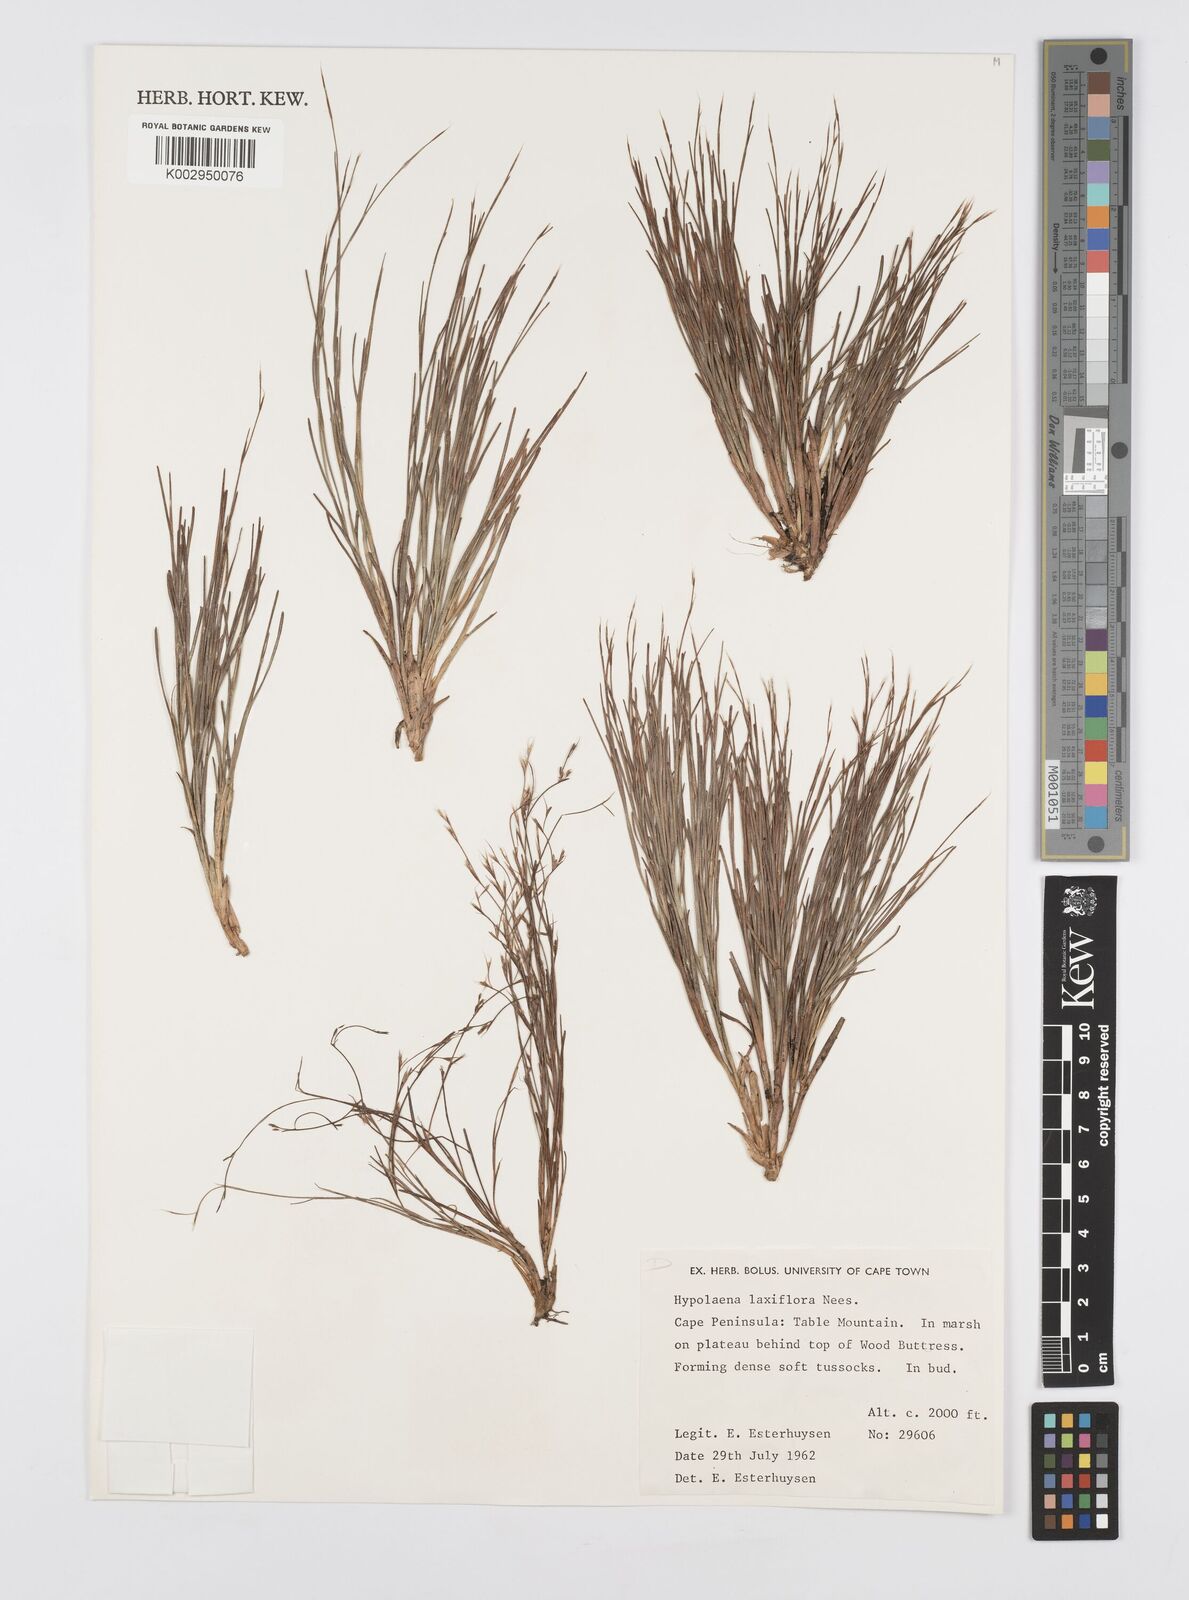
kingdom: Plantae
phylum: Tracheophyta
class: Liliopsida
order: Poales
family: Restionaceae
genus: Anthochortus
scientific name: Anthochortus laxiflorus
